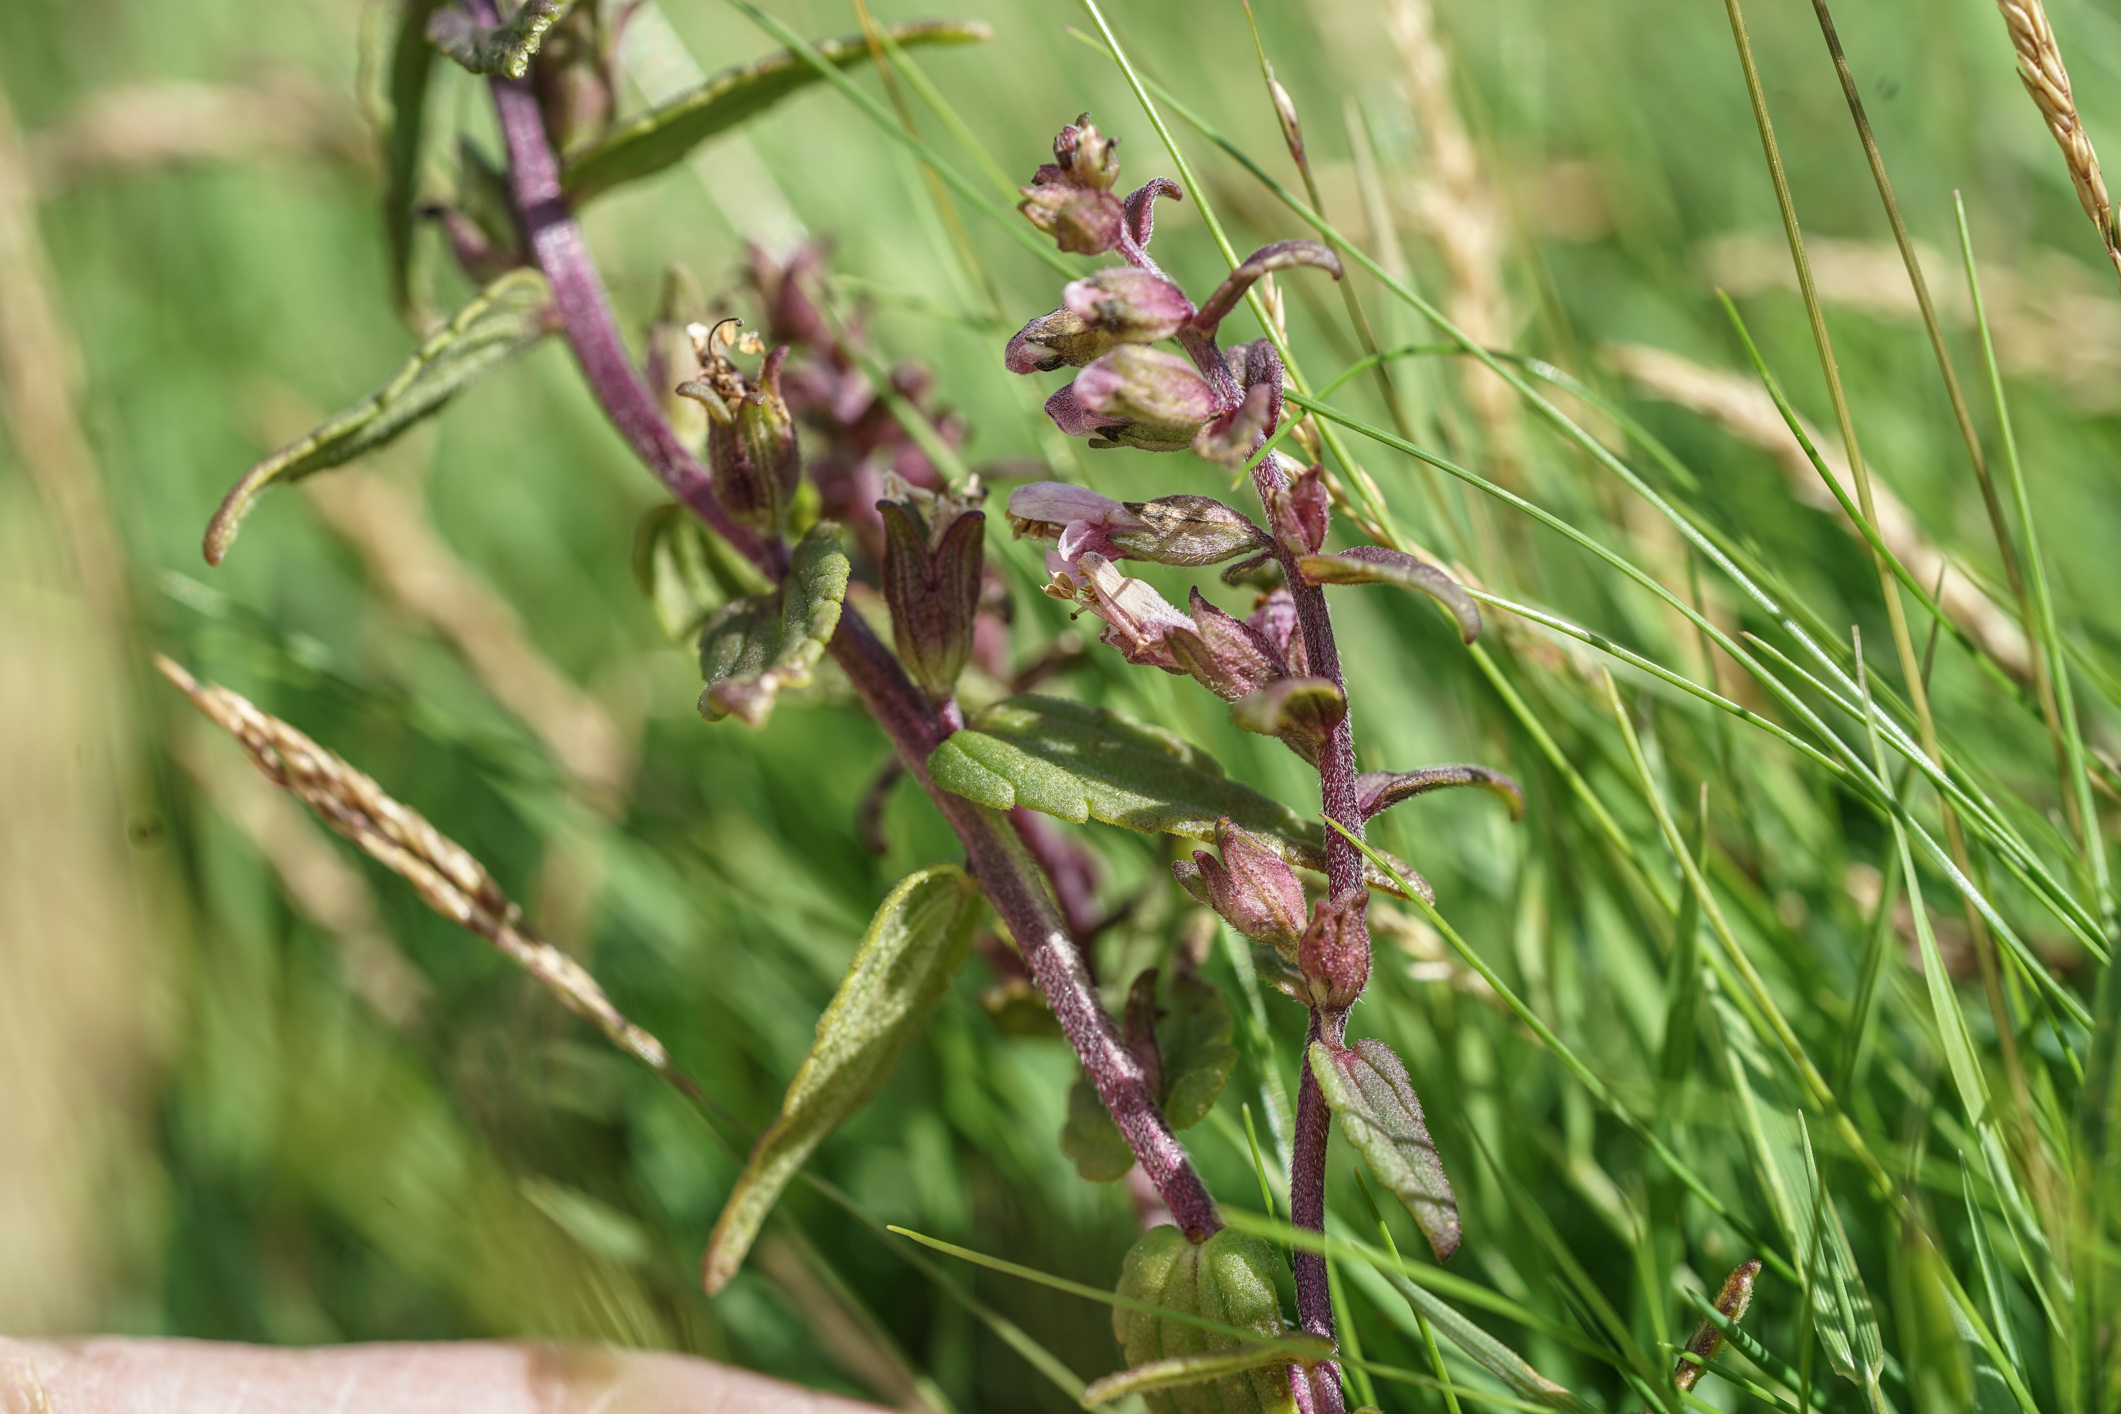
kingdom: Plantae
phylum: Tracheophyta
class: Magnoliopsida
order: Lamiales
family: Orobanchaceae
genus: Odontites
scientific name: Odontites vulgaris
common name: Broomrape
